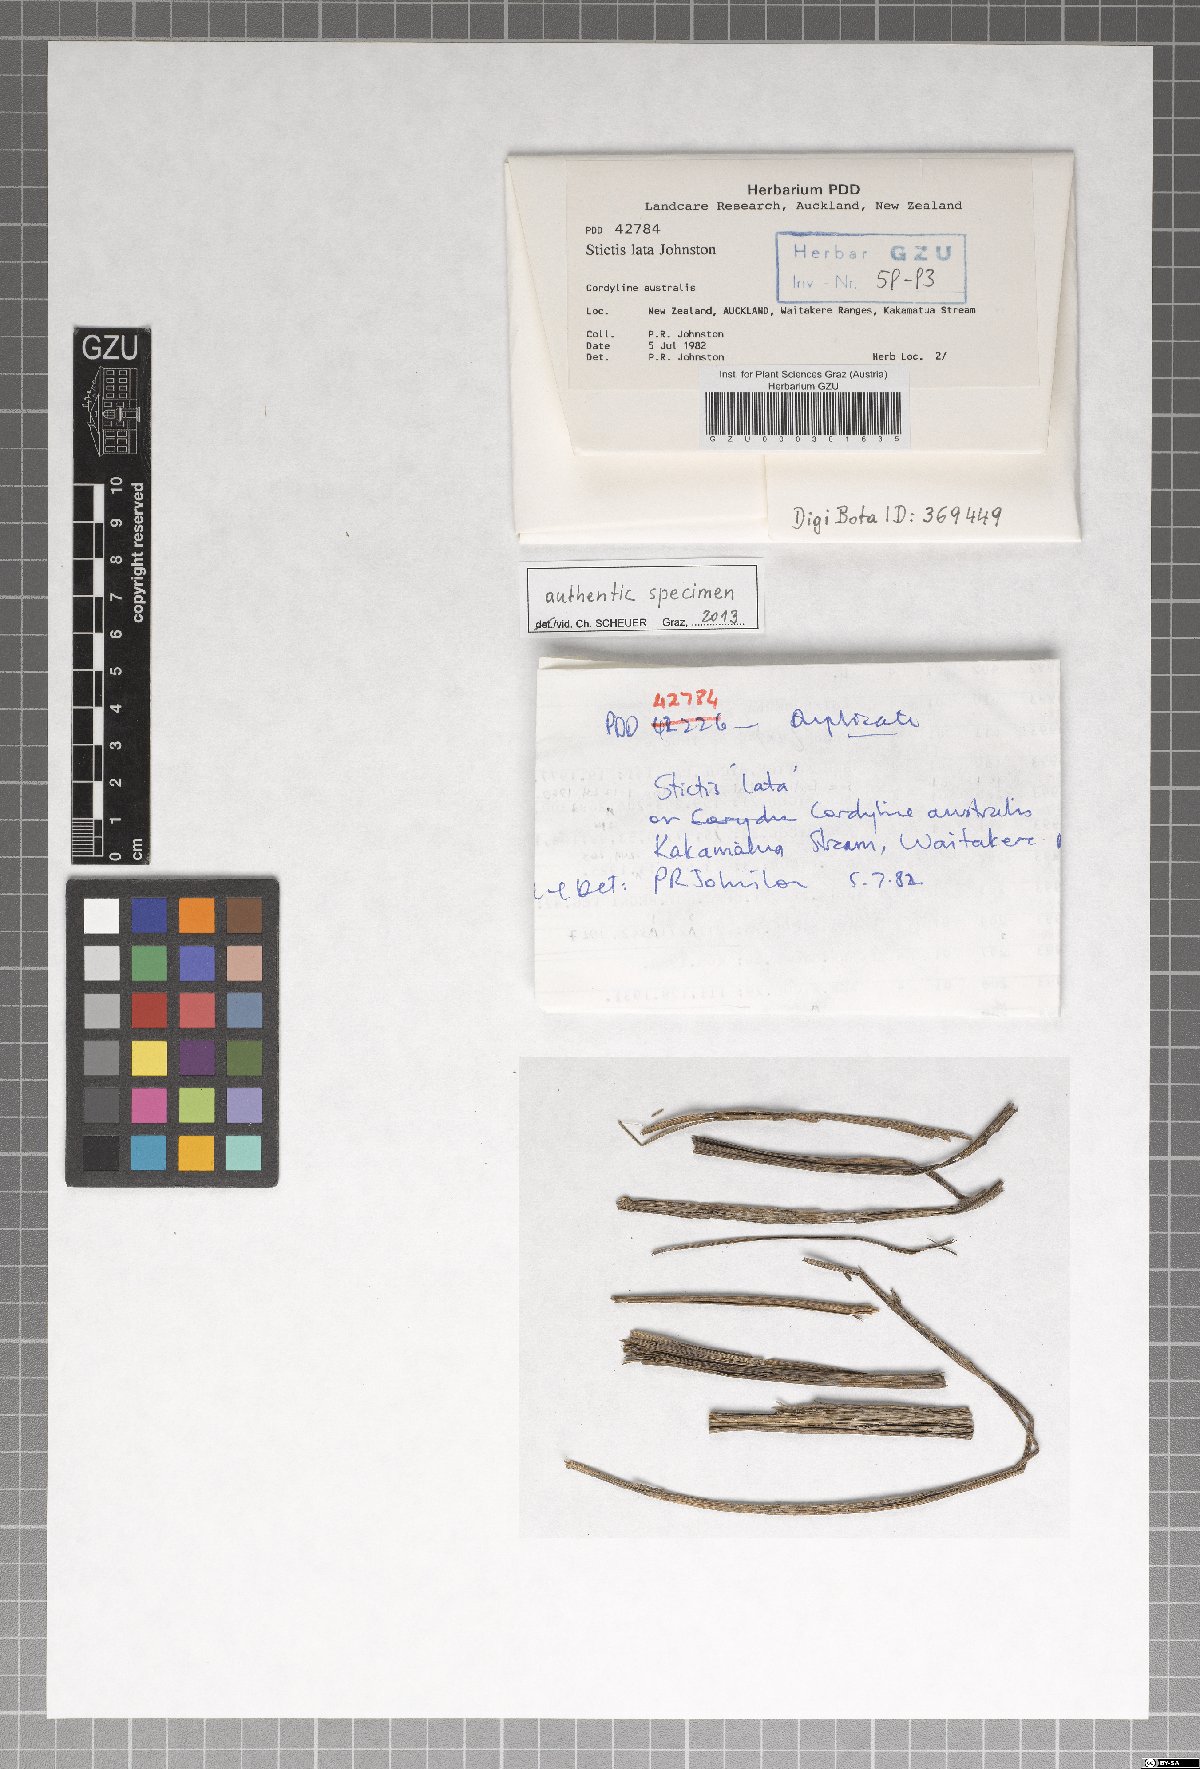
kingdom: Fungi
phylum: Ascomycota
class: Lecanoromycetes
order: Ostropales
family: Stictidaceae
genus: Stictis
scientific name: Stictis lata
